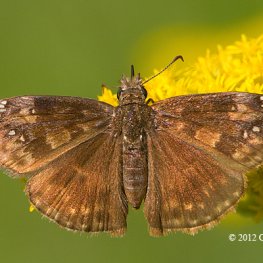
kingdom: Animalia
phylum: Arthropoda
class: Insecta
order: Lepidoptera
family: Hesperiidae
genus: Gesta
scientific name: Gesta
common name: Wild Indigo Duskywing
